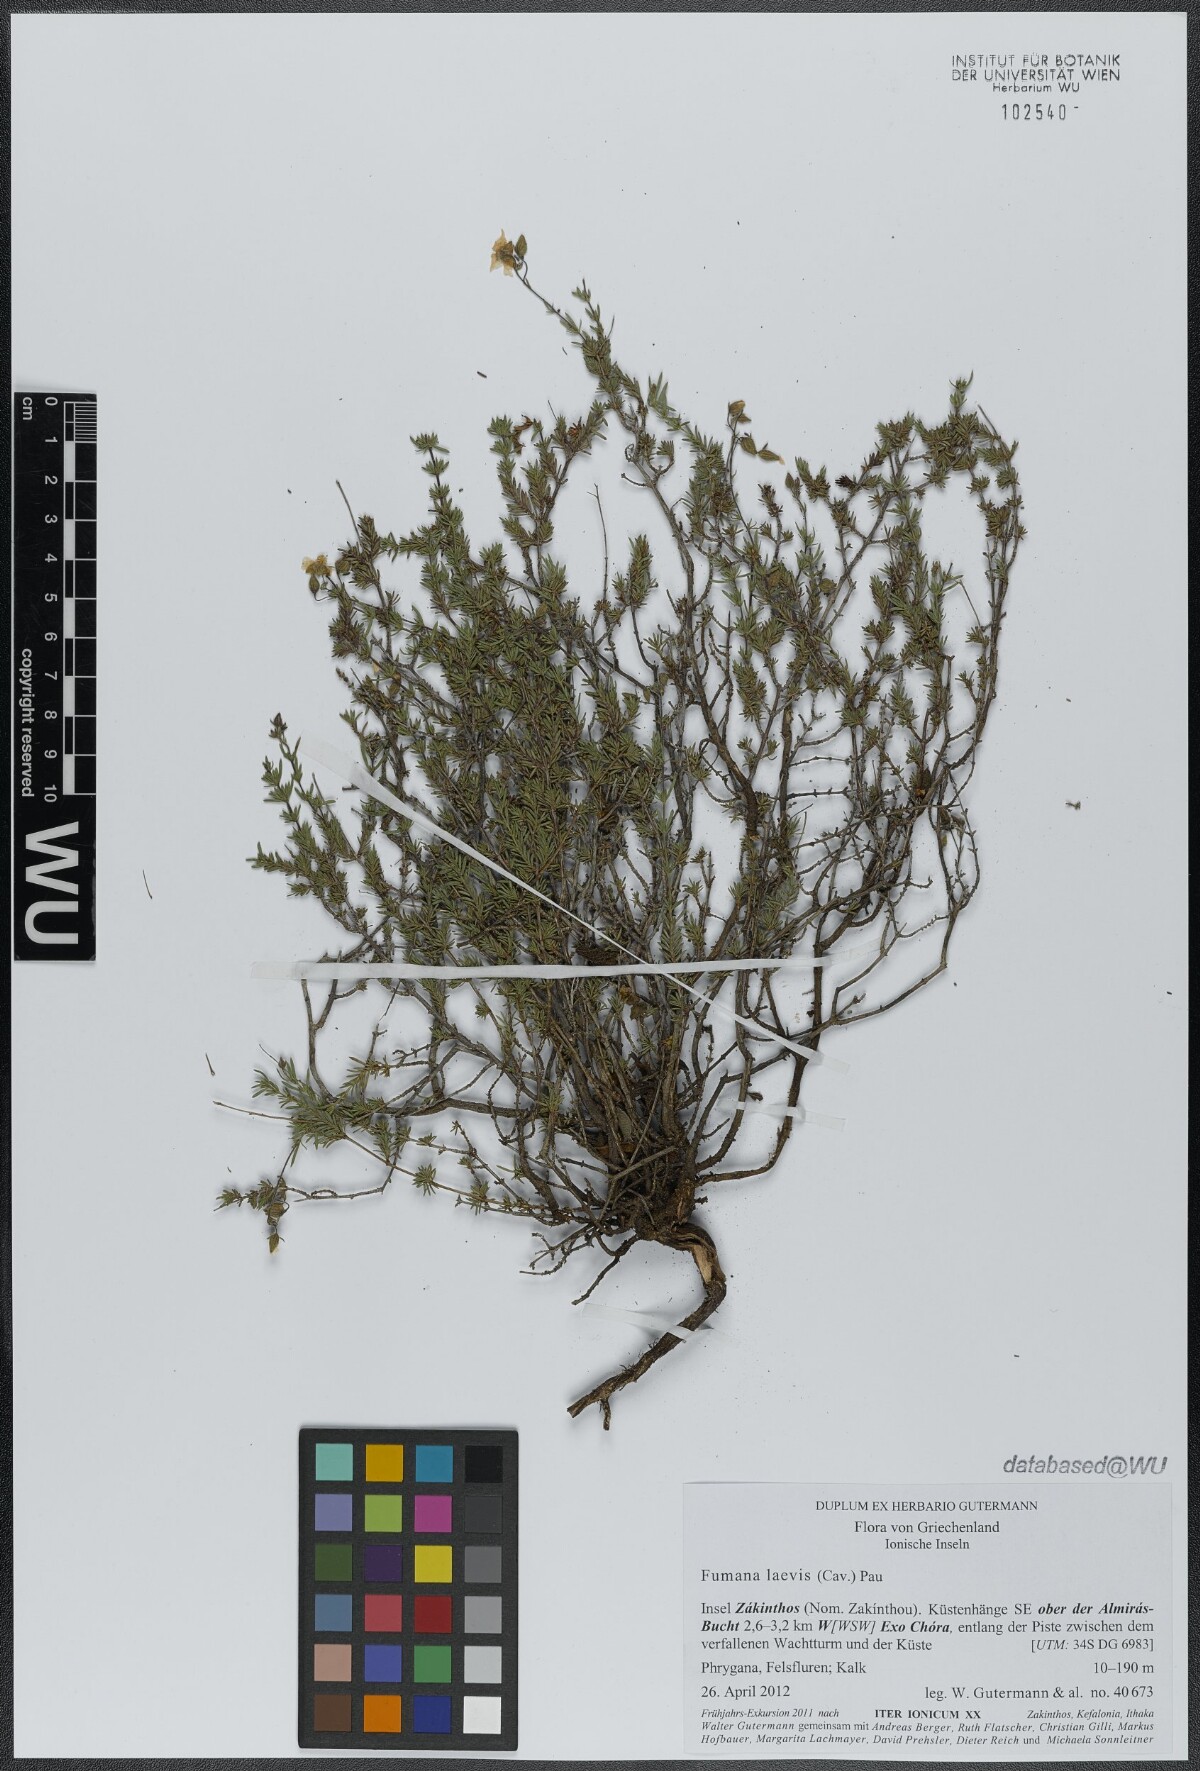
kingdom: Plantae
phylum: Tracheophyta
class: Magnoliopsida
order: Malvales
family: Cistaceae
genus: Fumana
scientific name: Fumana laevis
